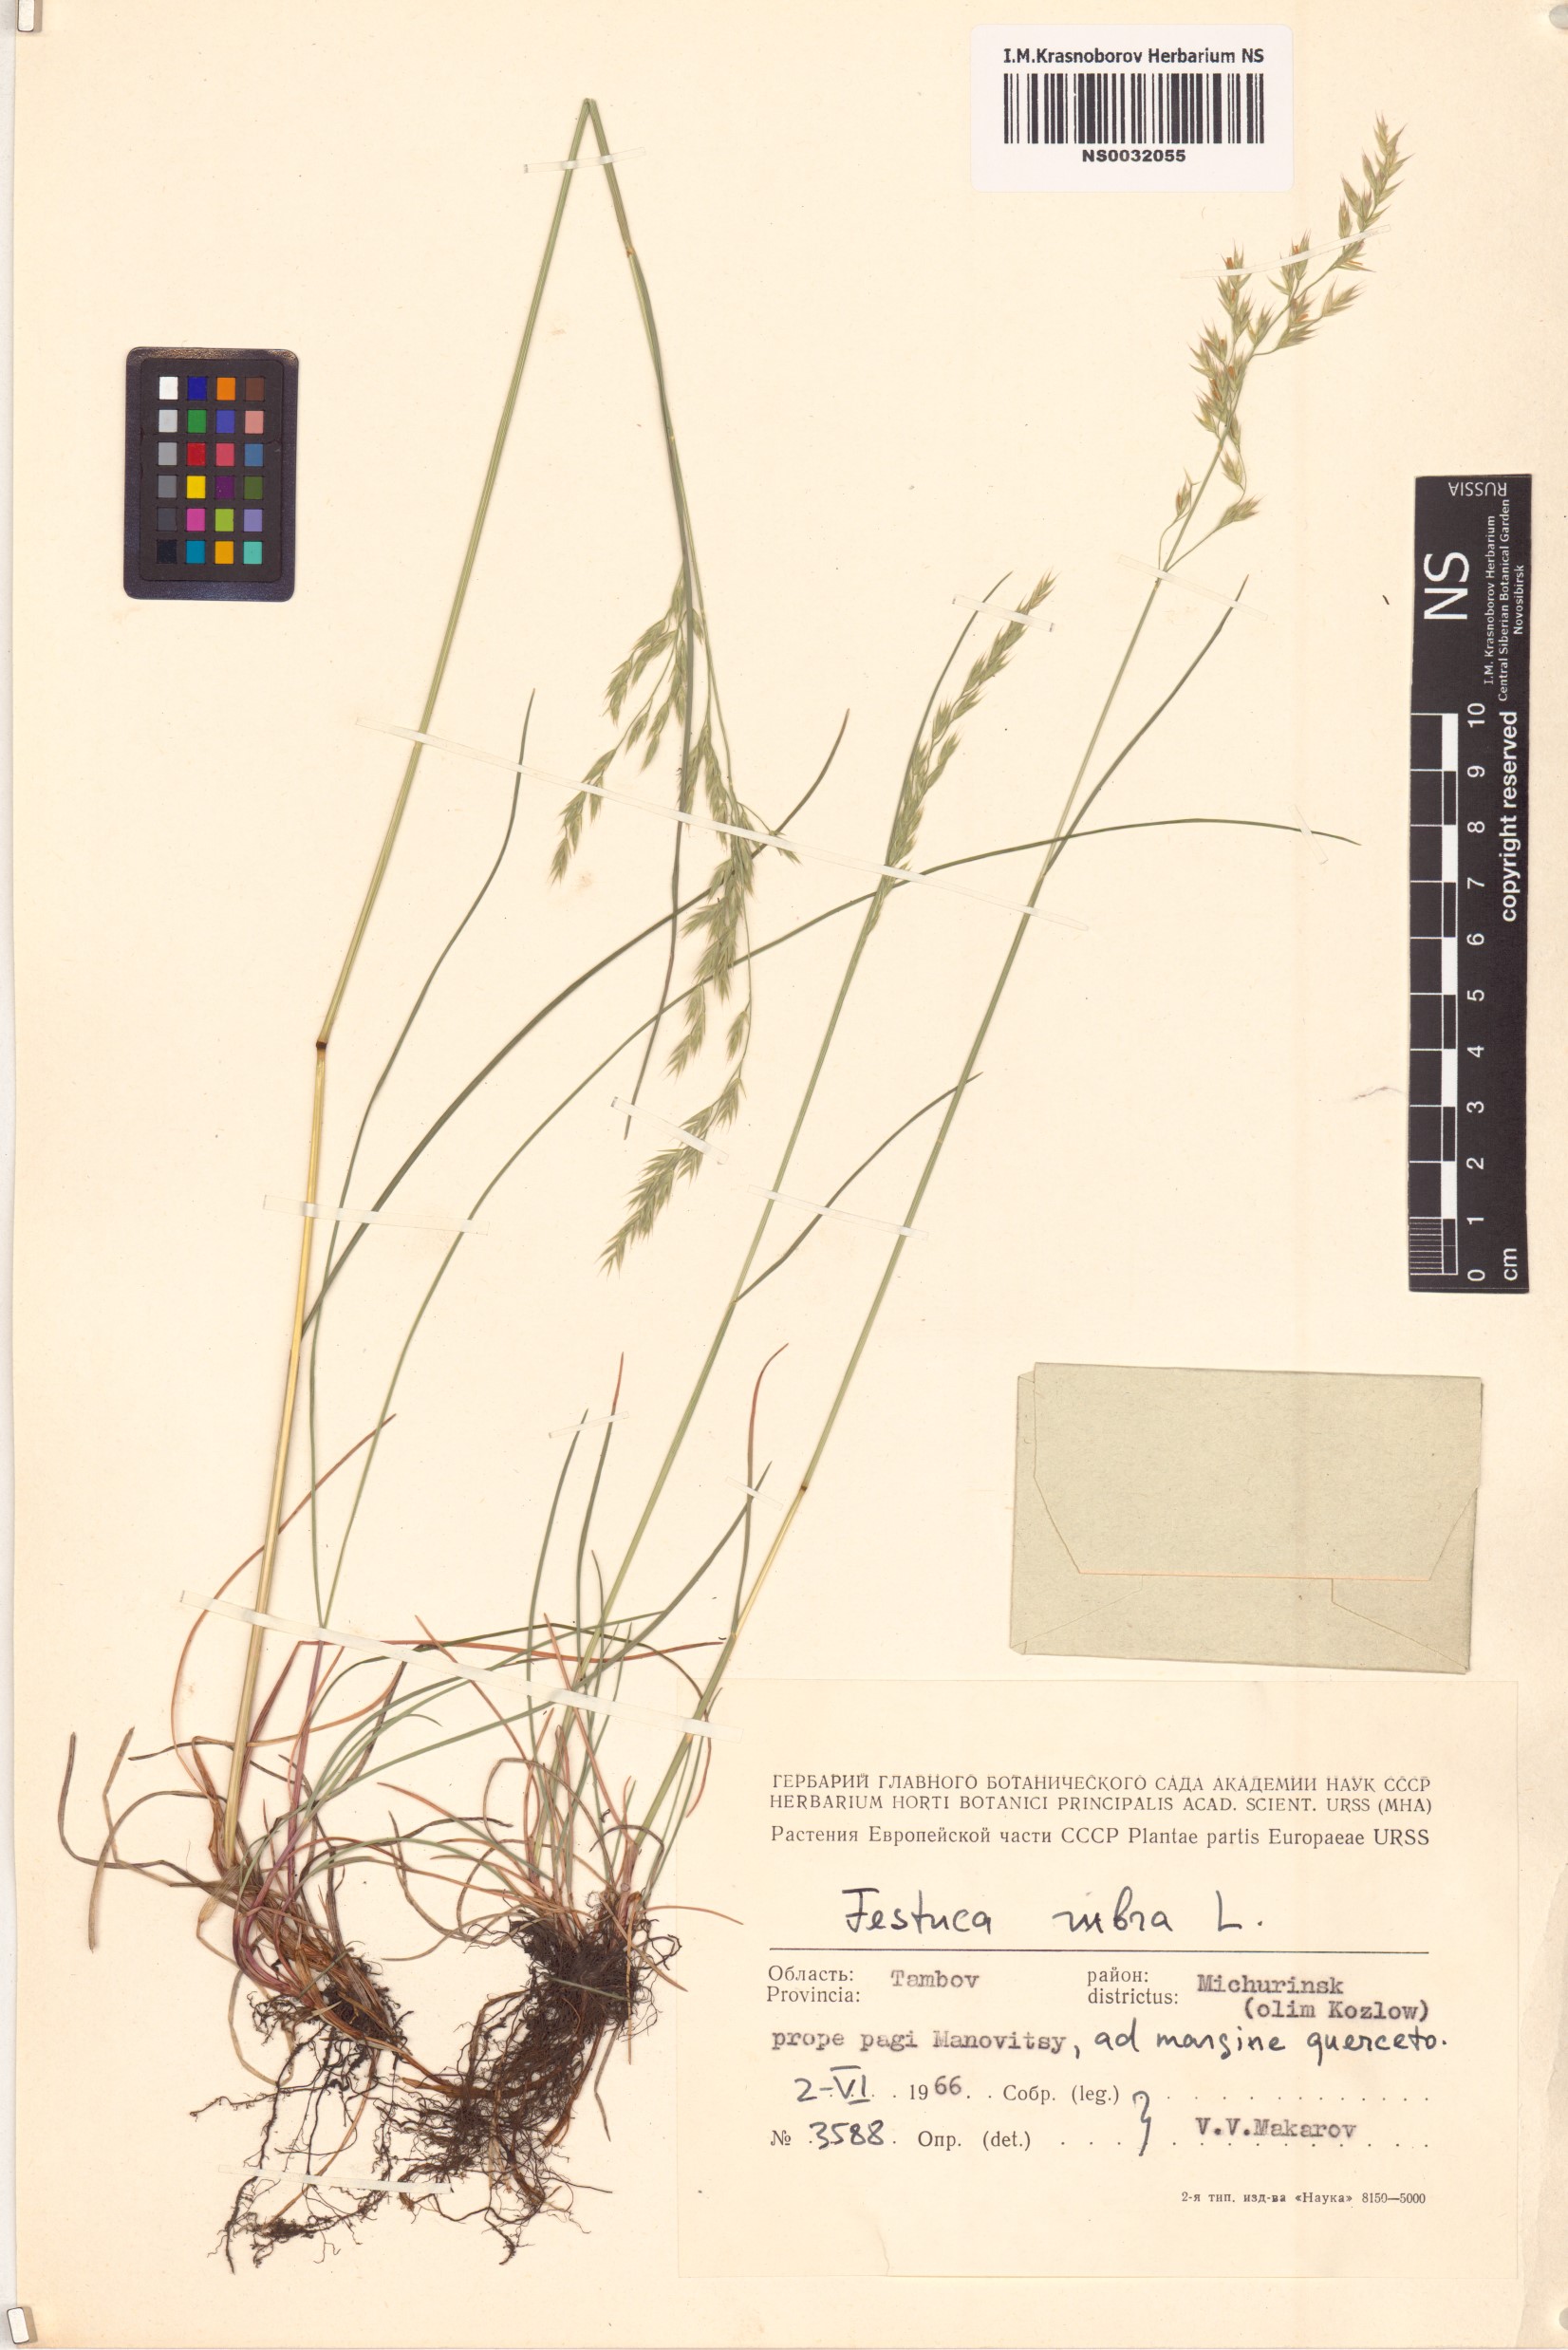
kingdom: Plantae
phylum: Tracheophyta
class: Liliopsida
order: Poales
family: Poaceae
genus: Festuca
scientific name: Festuca rubra
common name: Red fescue
